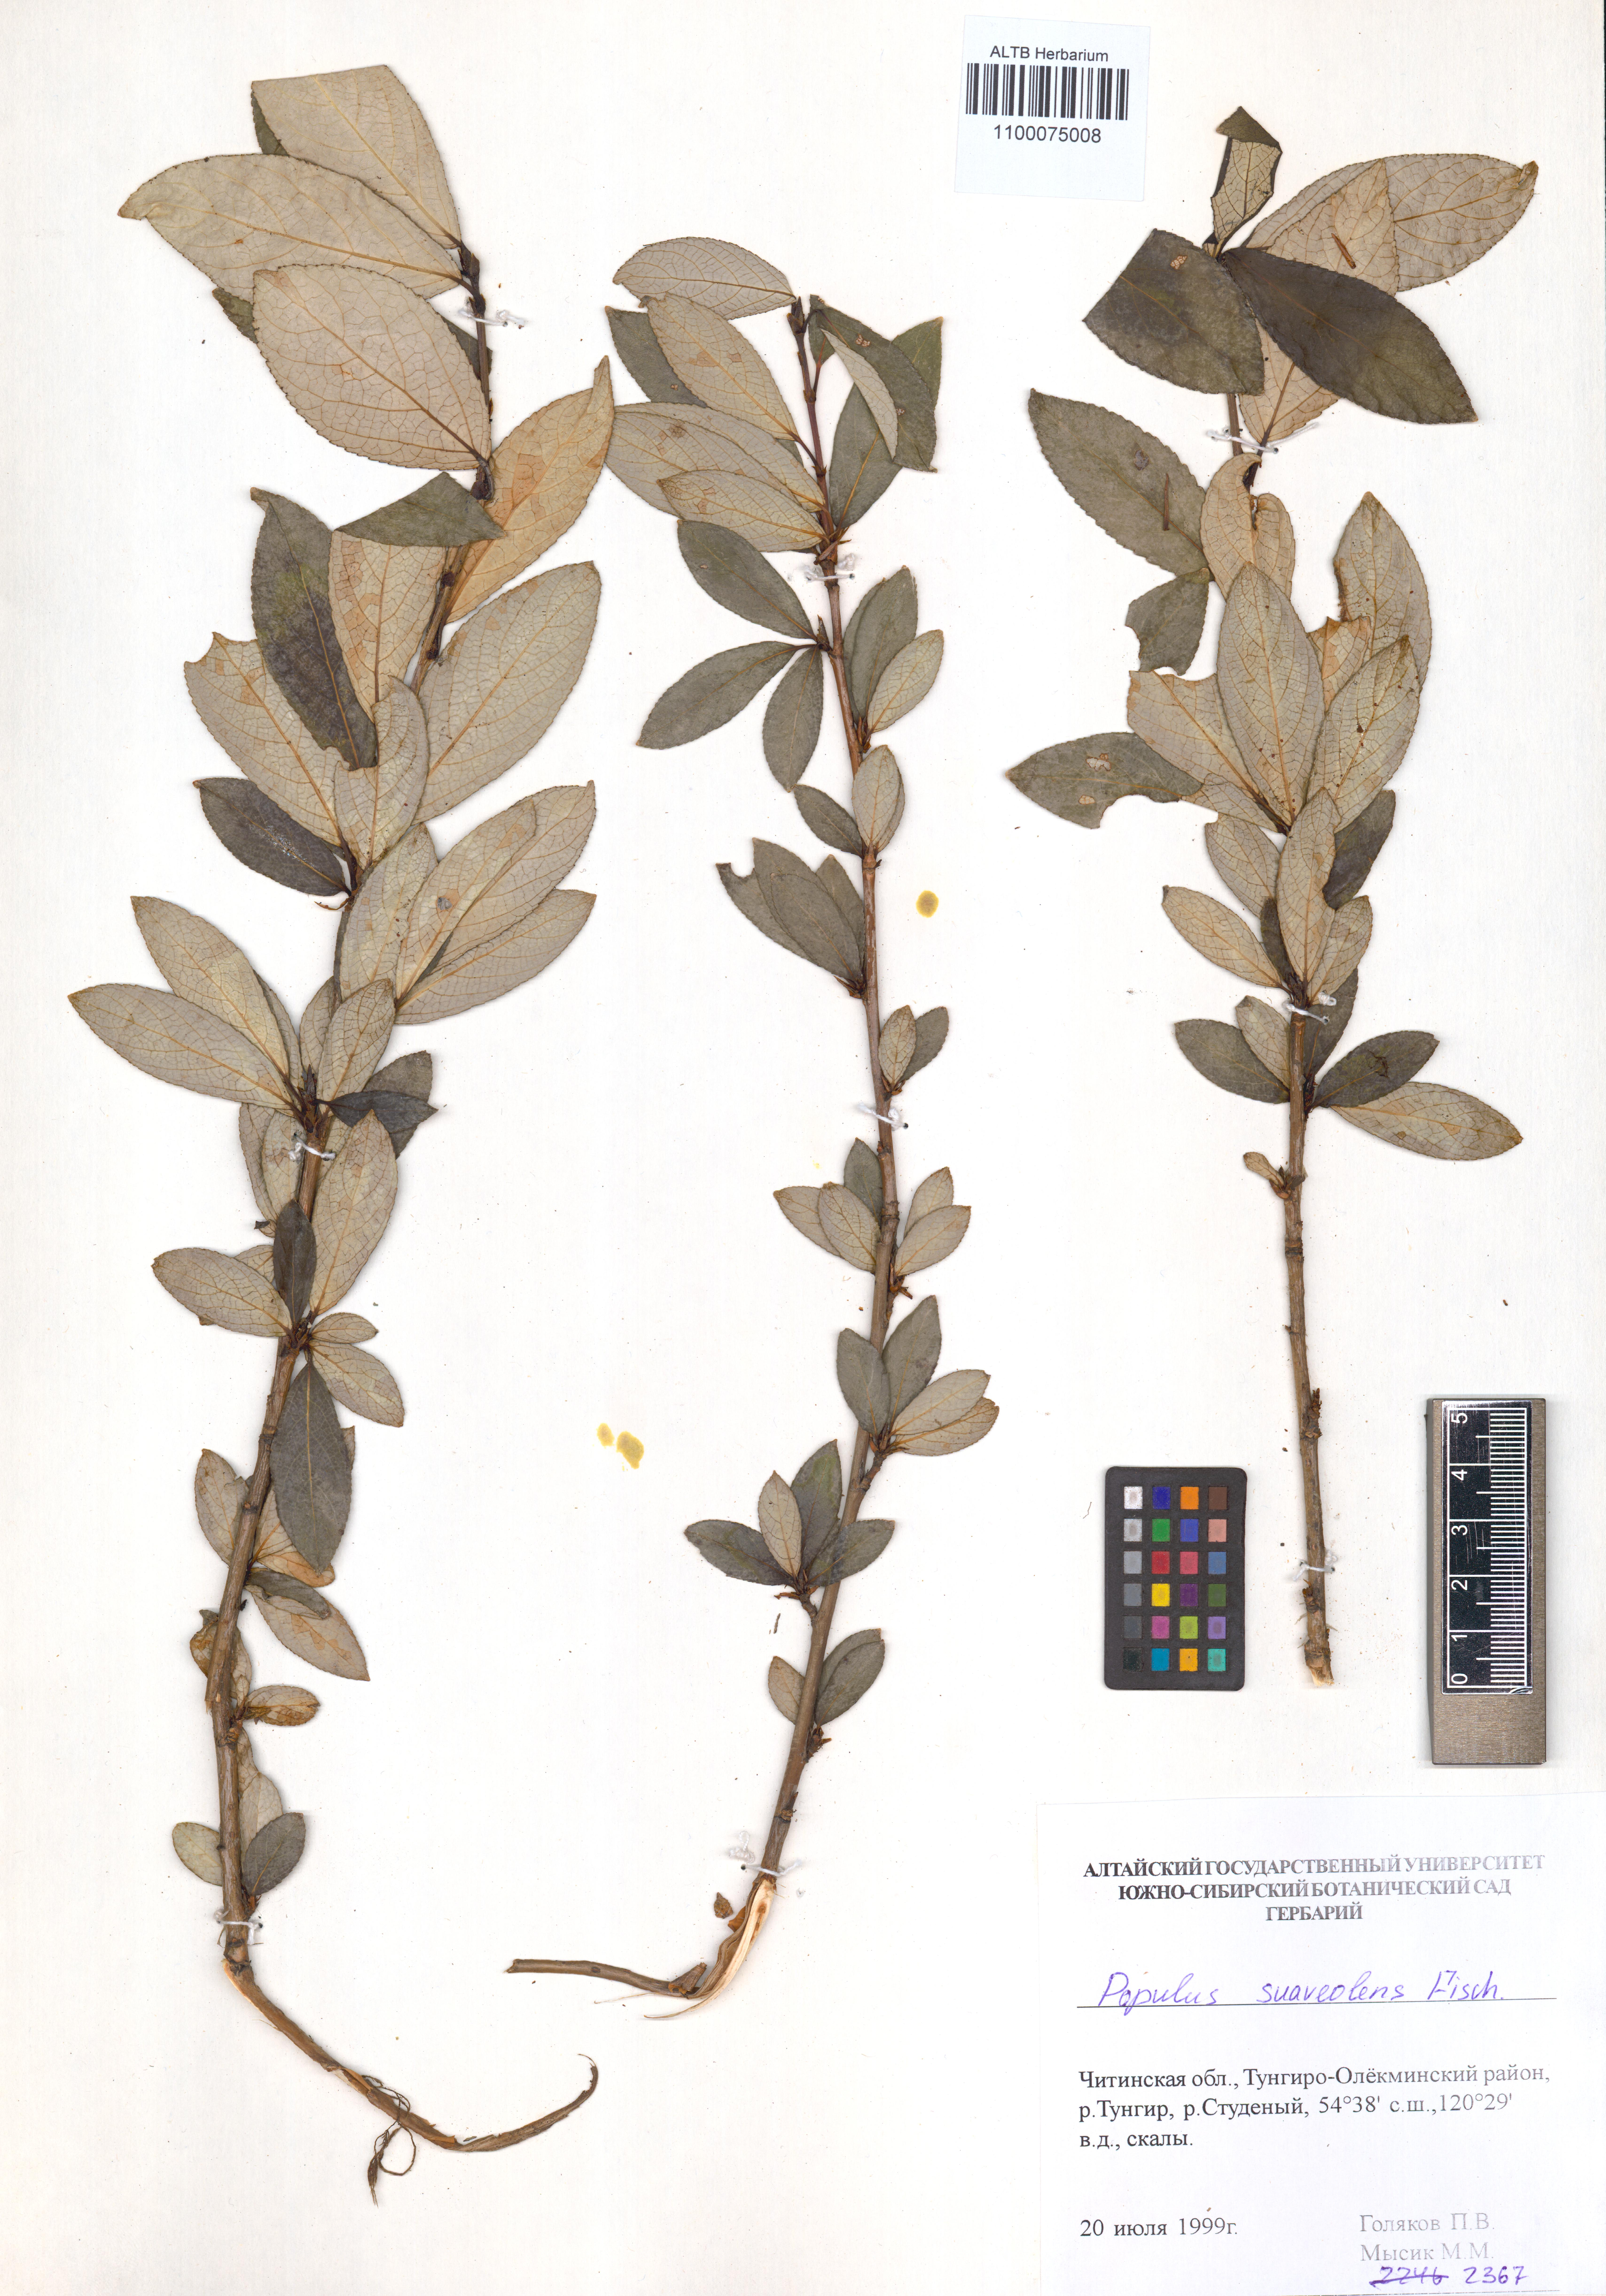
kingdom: Plantae
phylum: Tracheophyta
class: Magnoliopsida
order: Malpighiales
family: Salicaceae
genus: Populus
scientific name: Populus suaveolens
